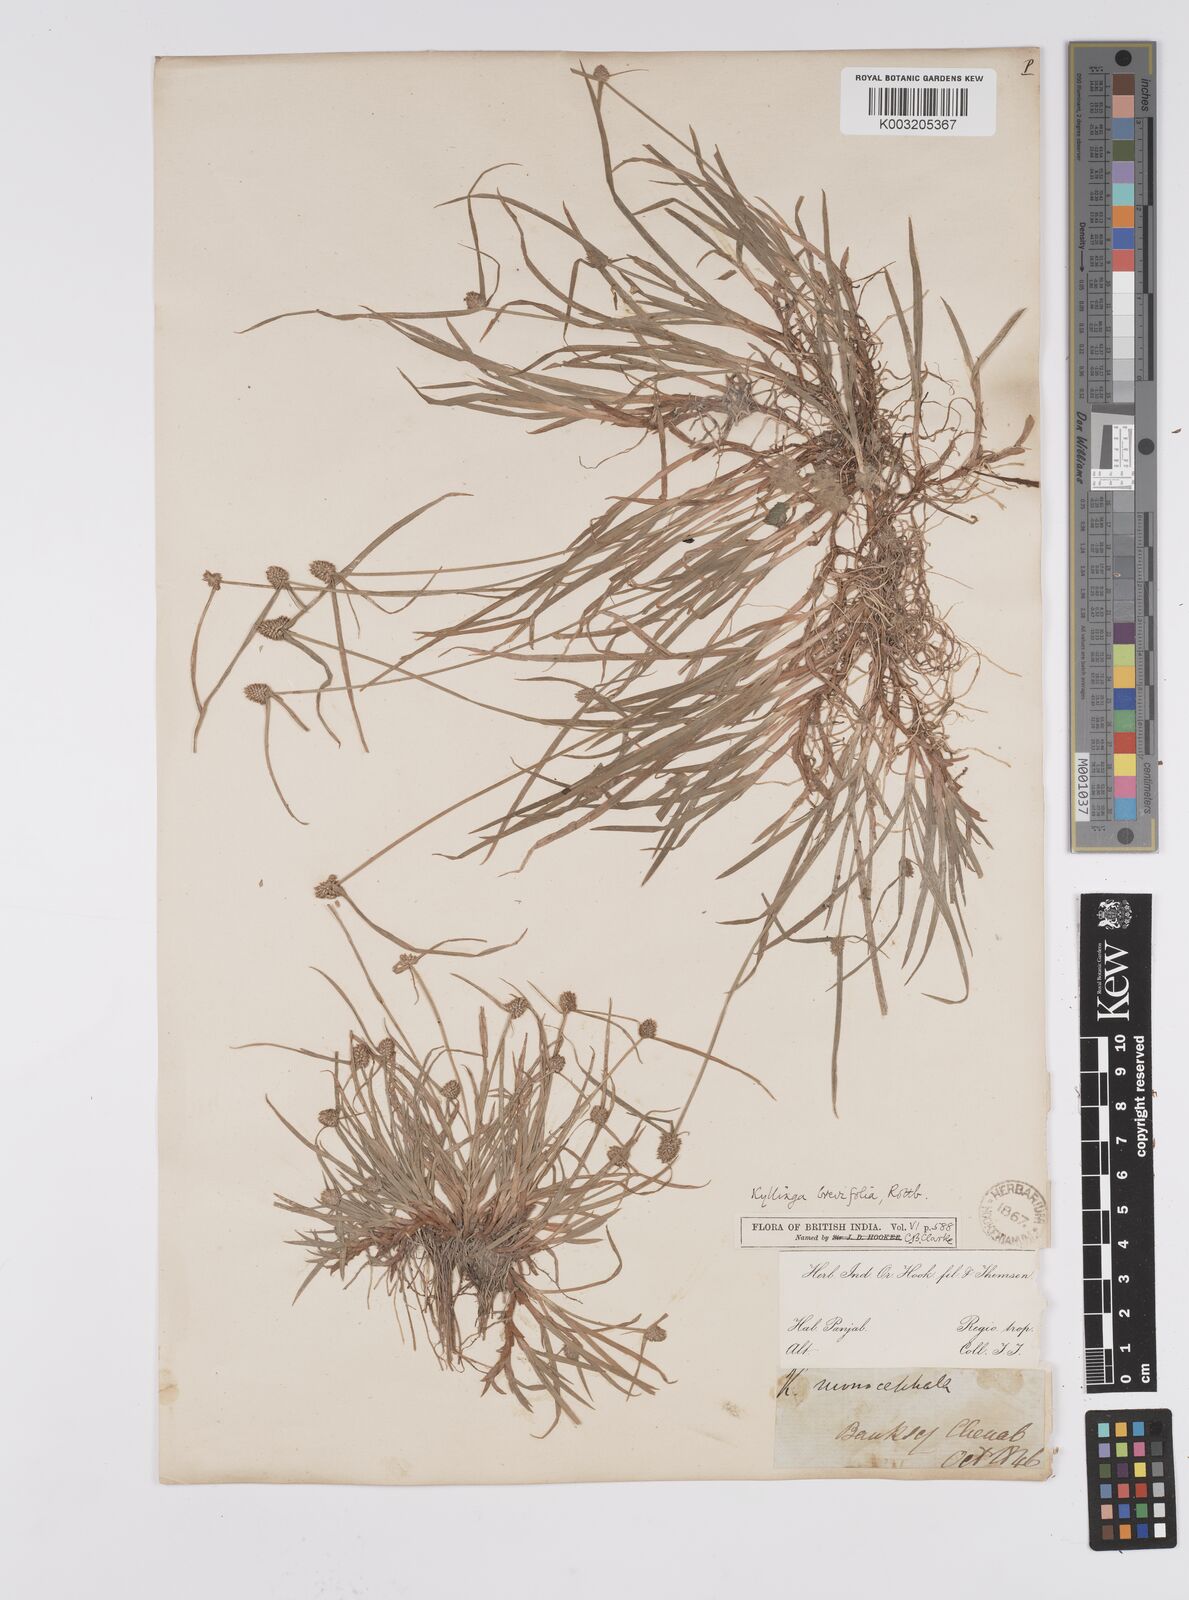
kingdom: Plantae
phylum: Tracheophyta
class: Liliopsida
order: Poales
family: Cyperaceae
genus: Cyperus
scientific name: Cyperus brevifolius
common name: Globe kyllinga
